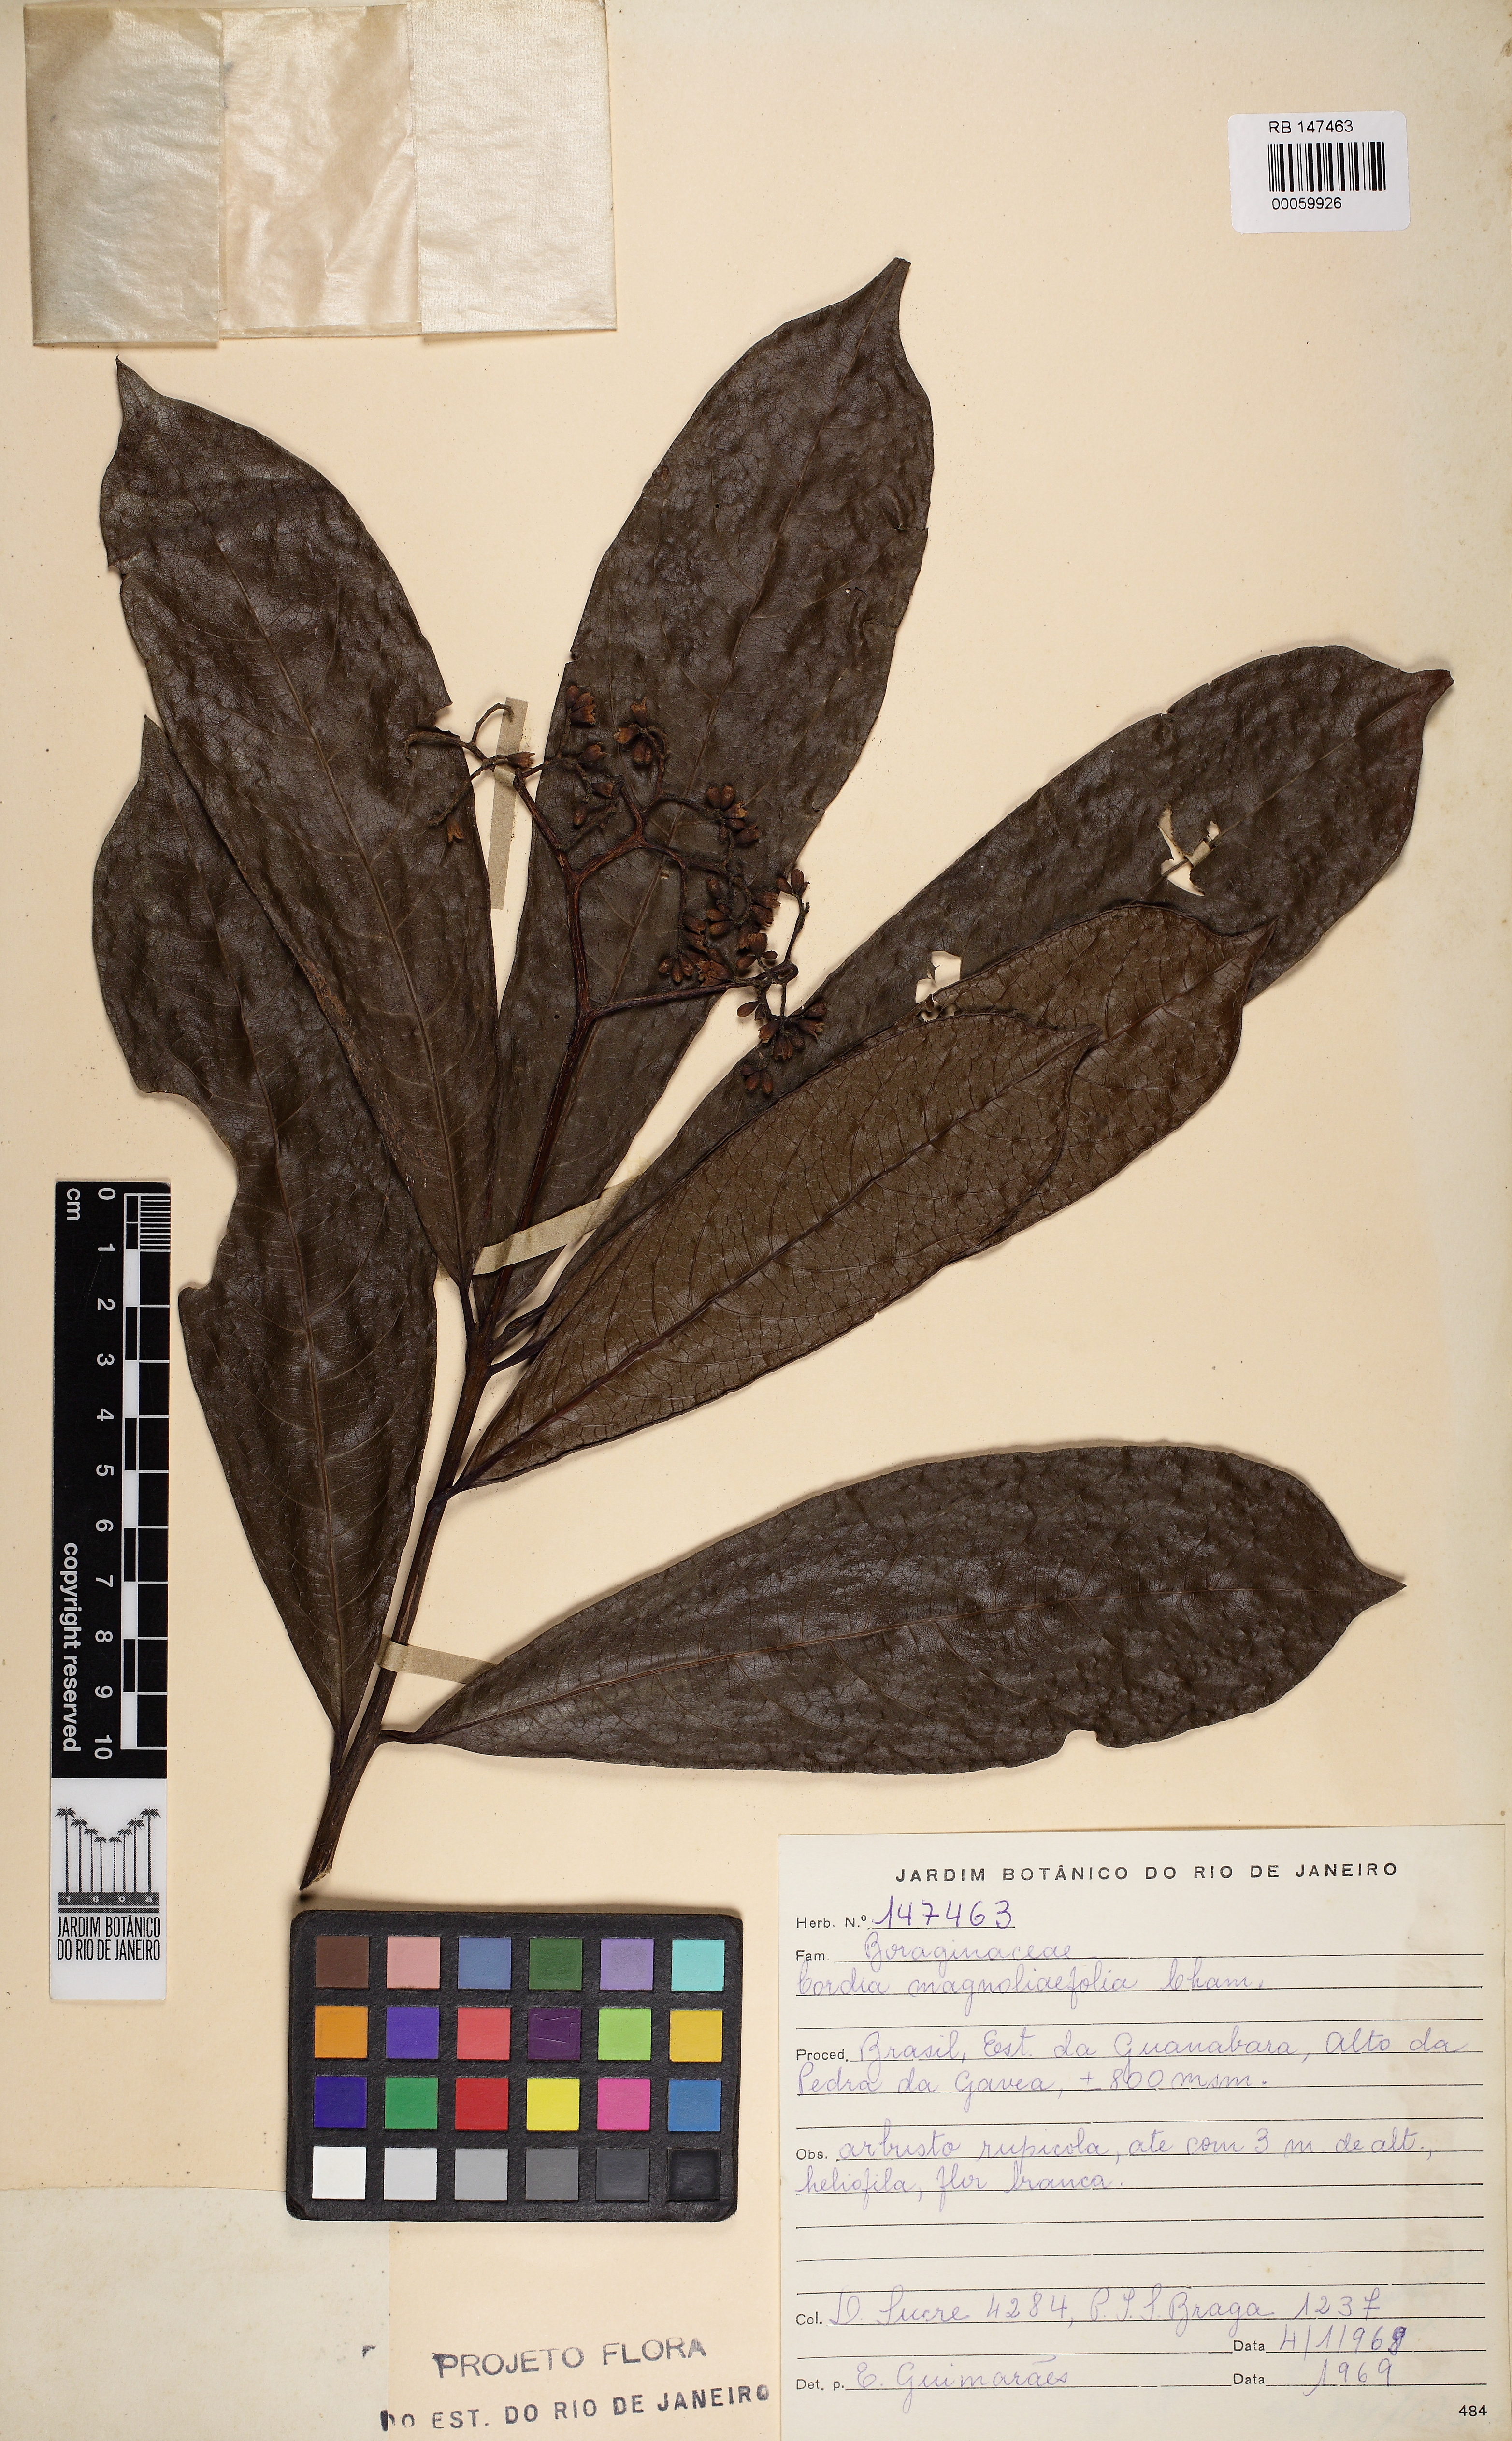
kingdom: Plantae
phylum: Tracheophyta
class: Magnoliopsida
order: Boraginales
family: Cordiaceae
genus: Cordia
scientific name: Cordia magnoliifolia
